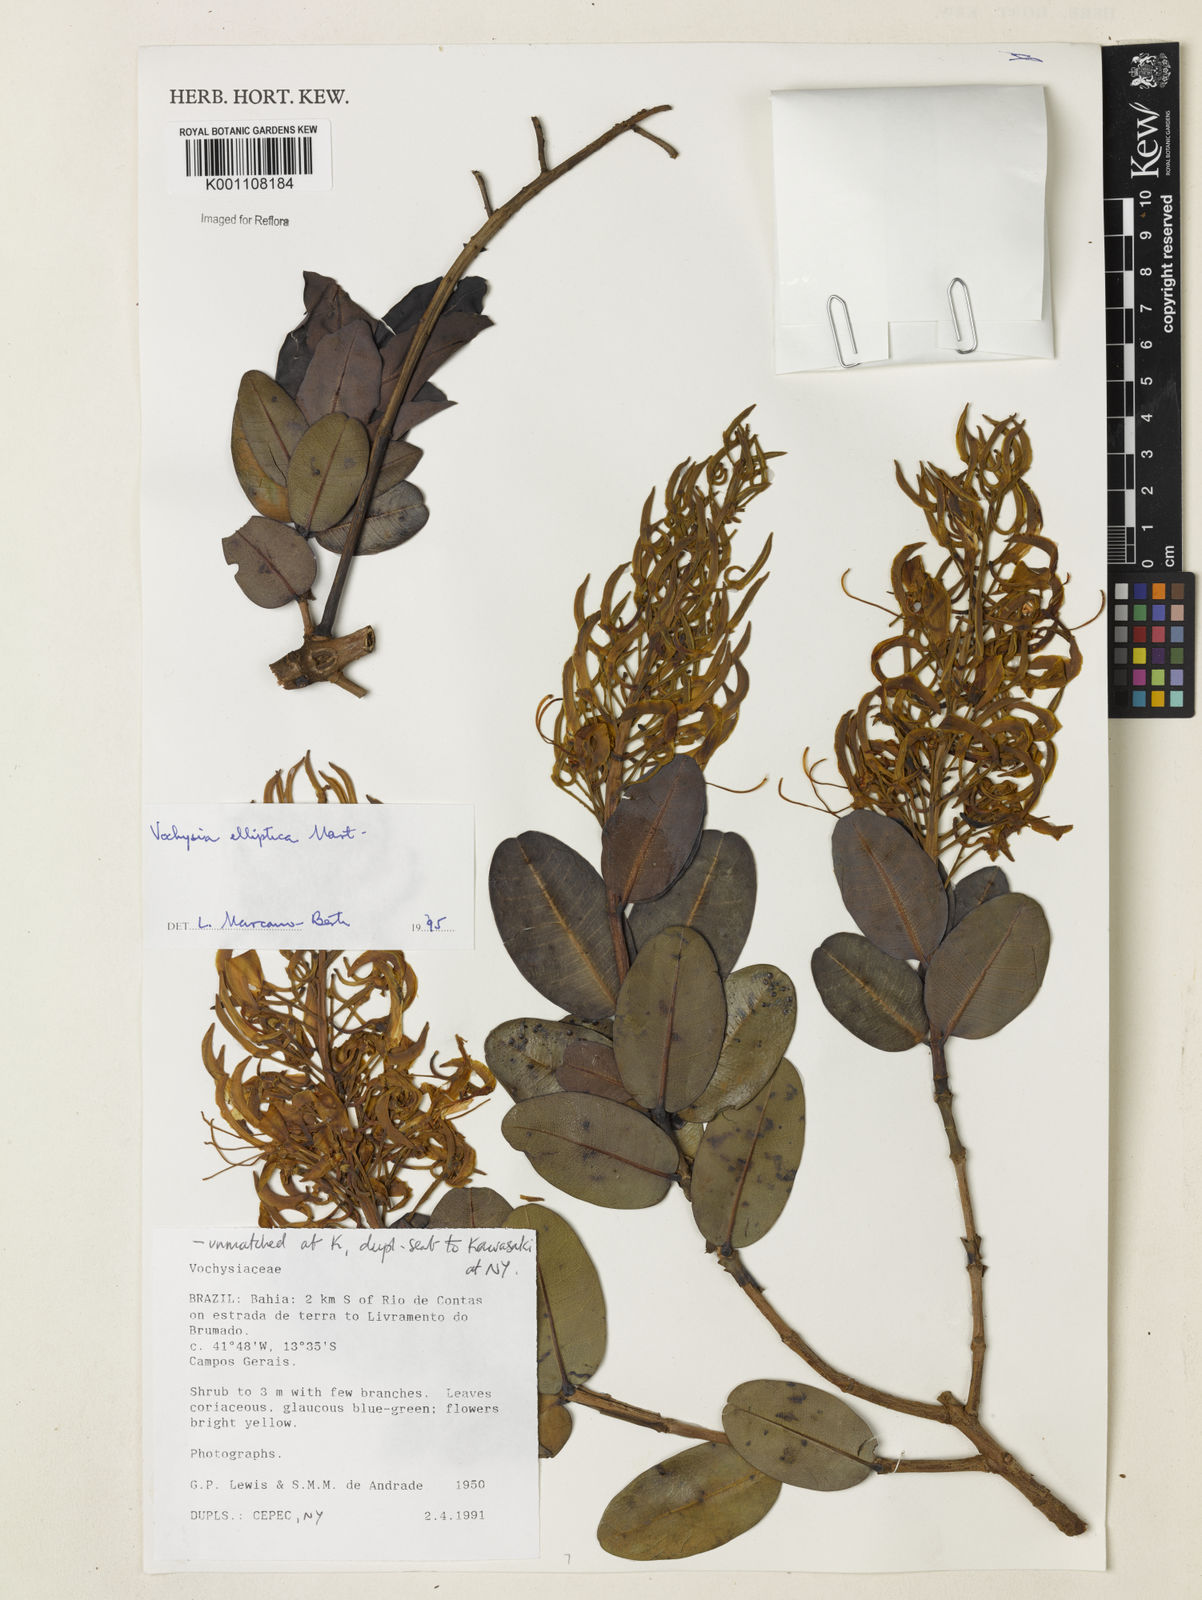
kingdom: Plantae
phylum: Tracheophyta
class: Magnoliopsida
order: Myrtales
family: Vochysiaceae
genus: Vochysia
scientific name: Vochysia elliptica
